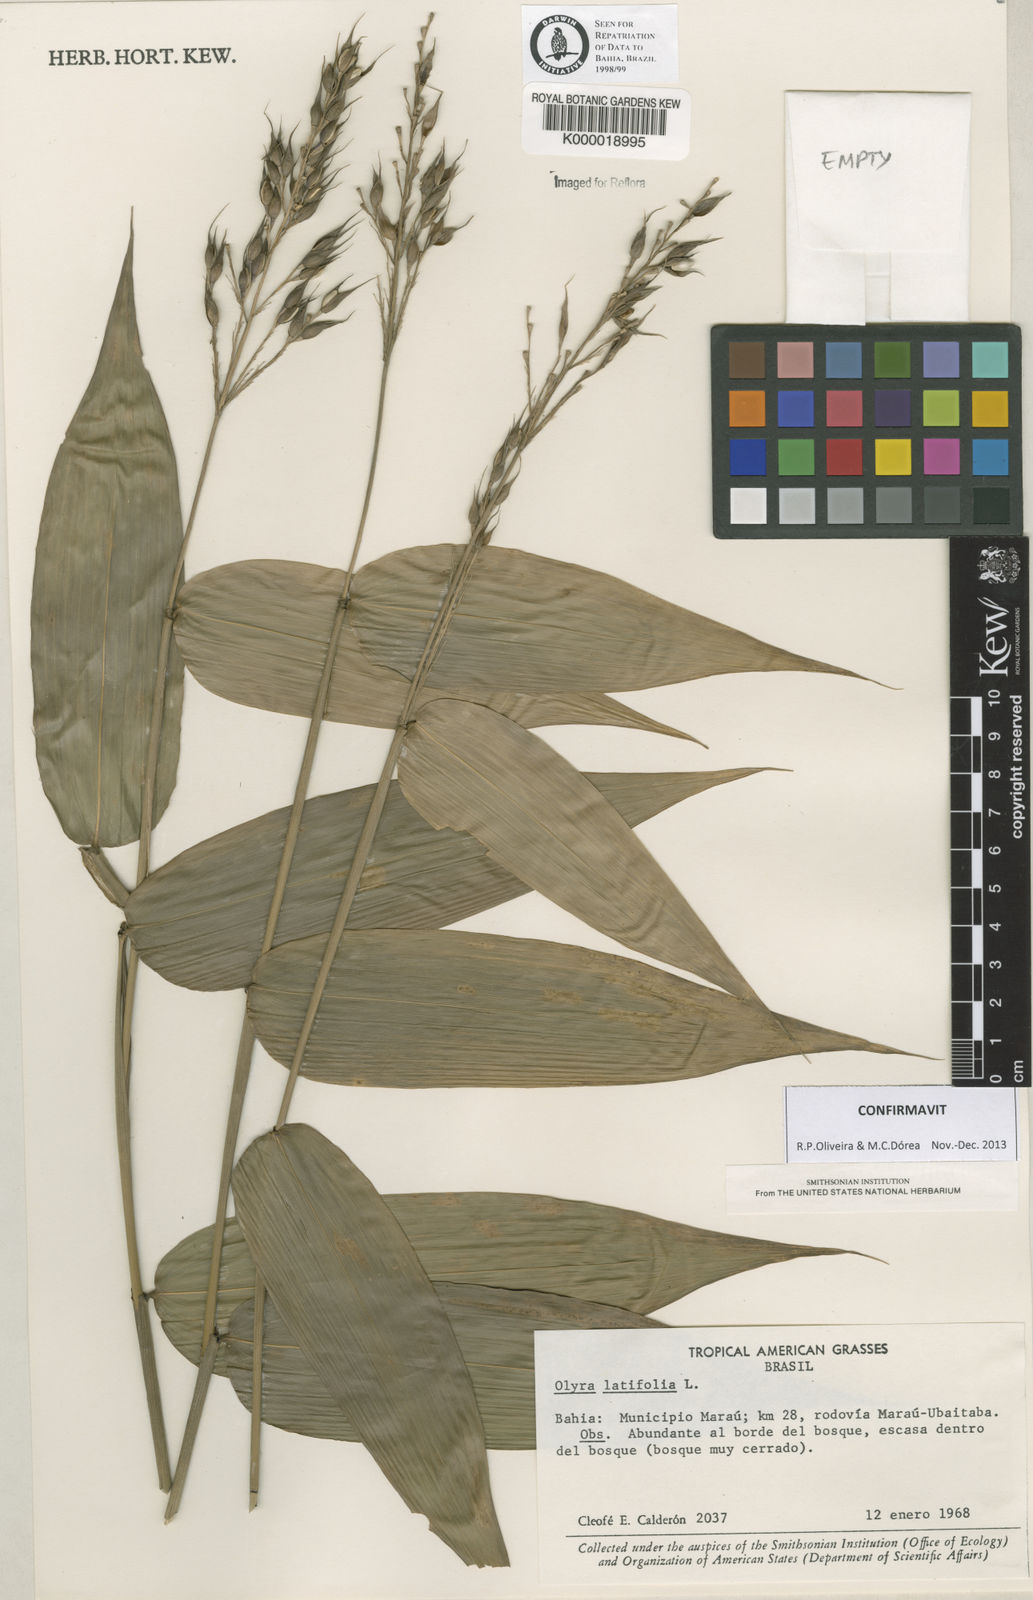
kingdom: Plantae
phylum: Tracheophyta
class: Liliopsida
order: Poales
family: Poaceae
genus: Olyra
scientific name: Olyra latifolia
